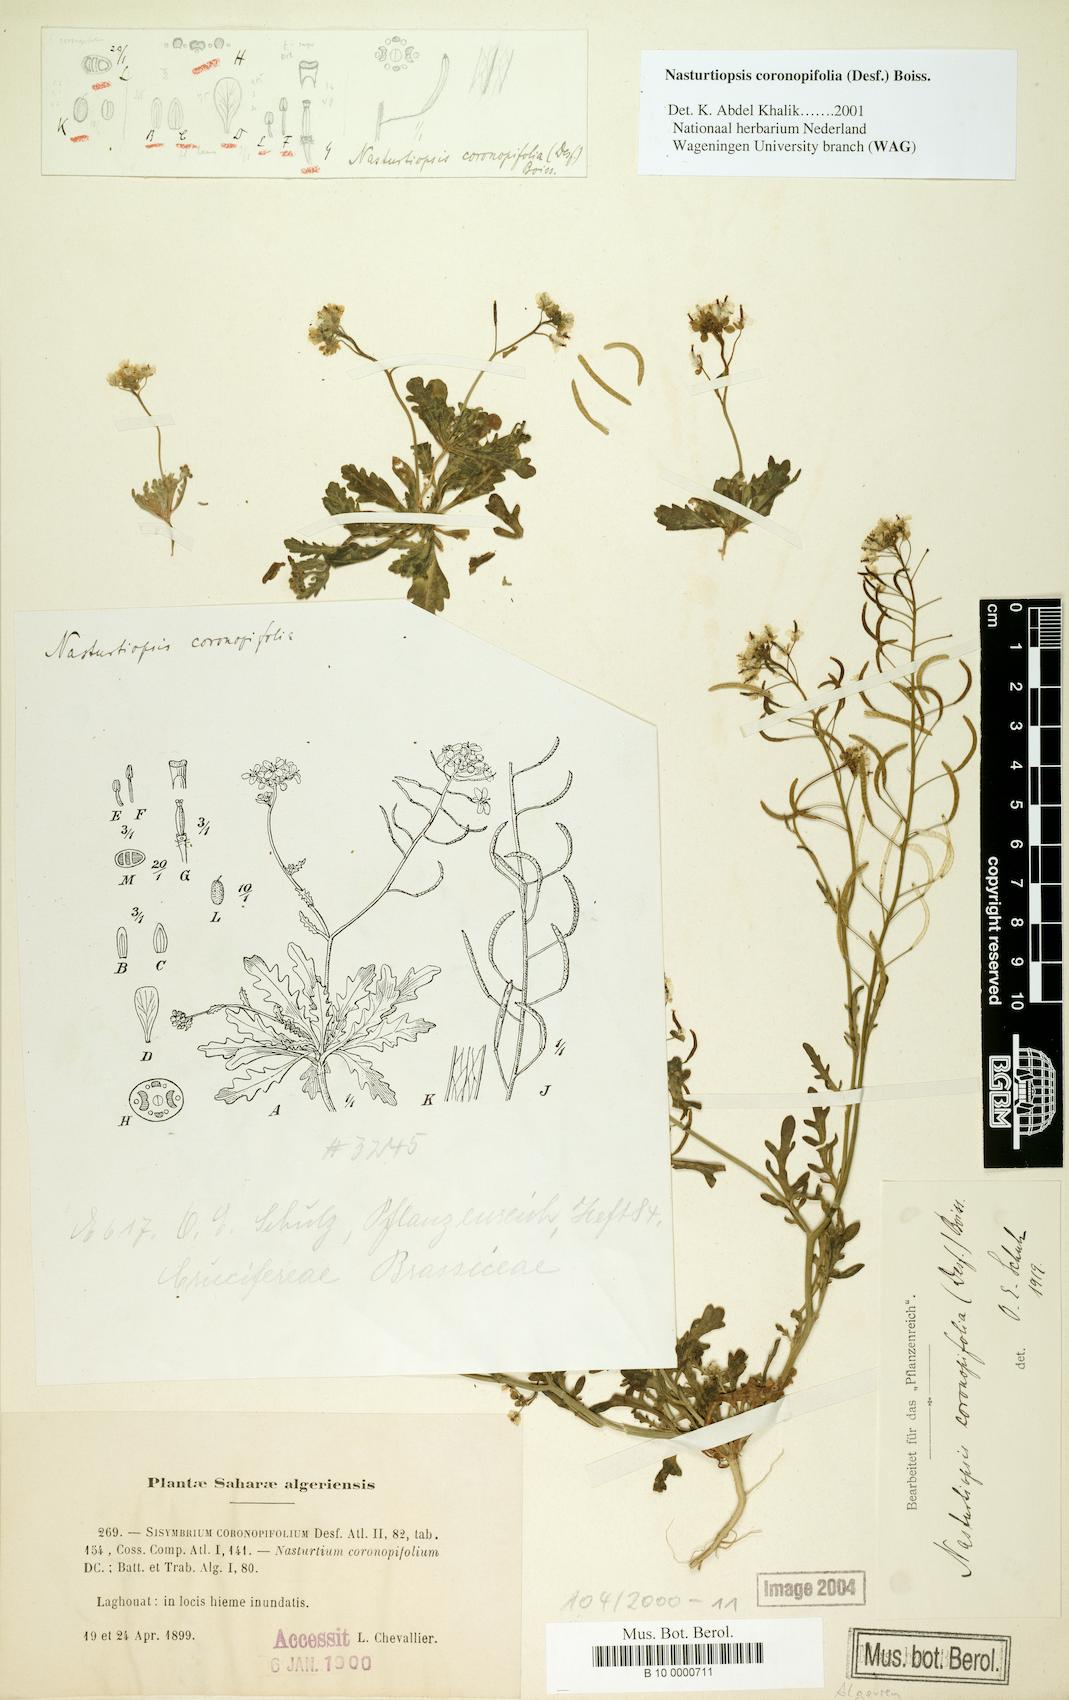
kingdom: Plantae
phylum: Tracheophyta
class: Magnoliopsida
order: Brassicales
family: Brassicaceae
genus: Nasturtiopsis
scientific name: Nasturtiopsis coronopifolia
